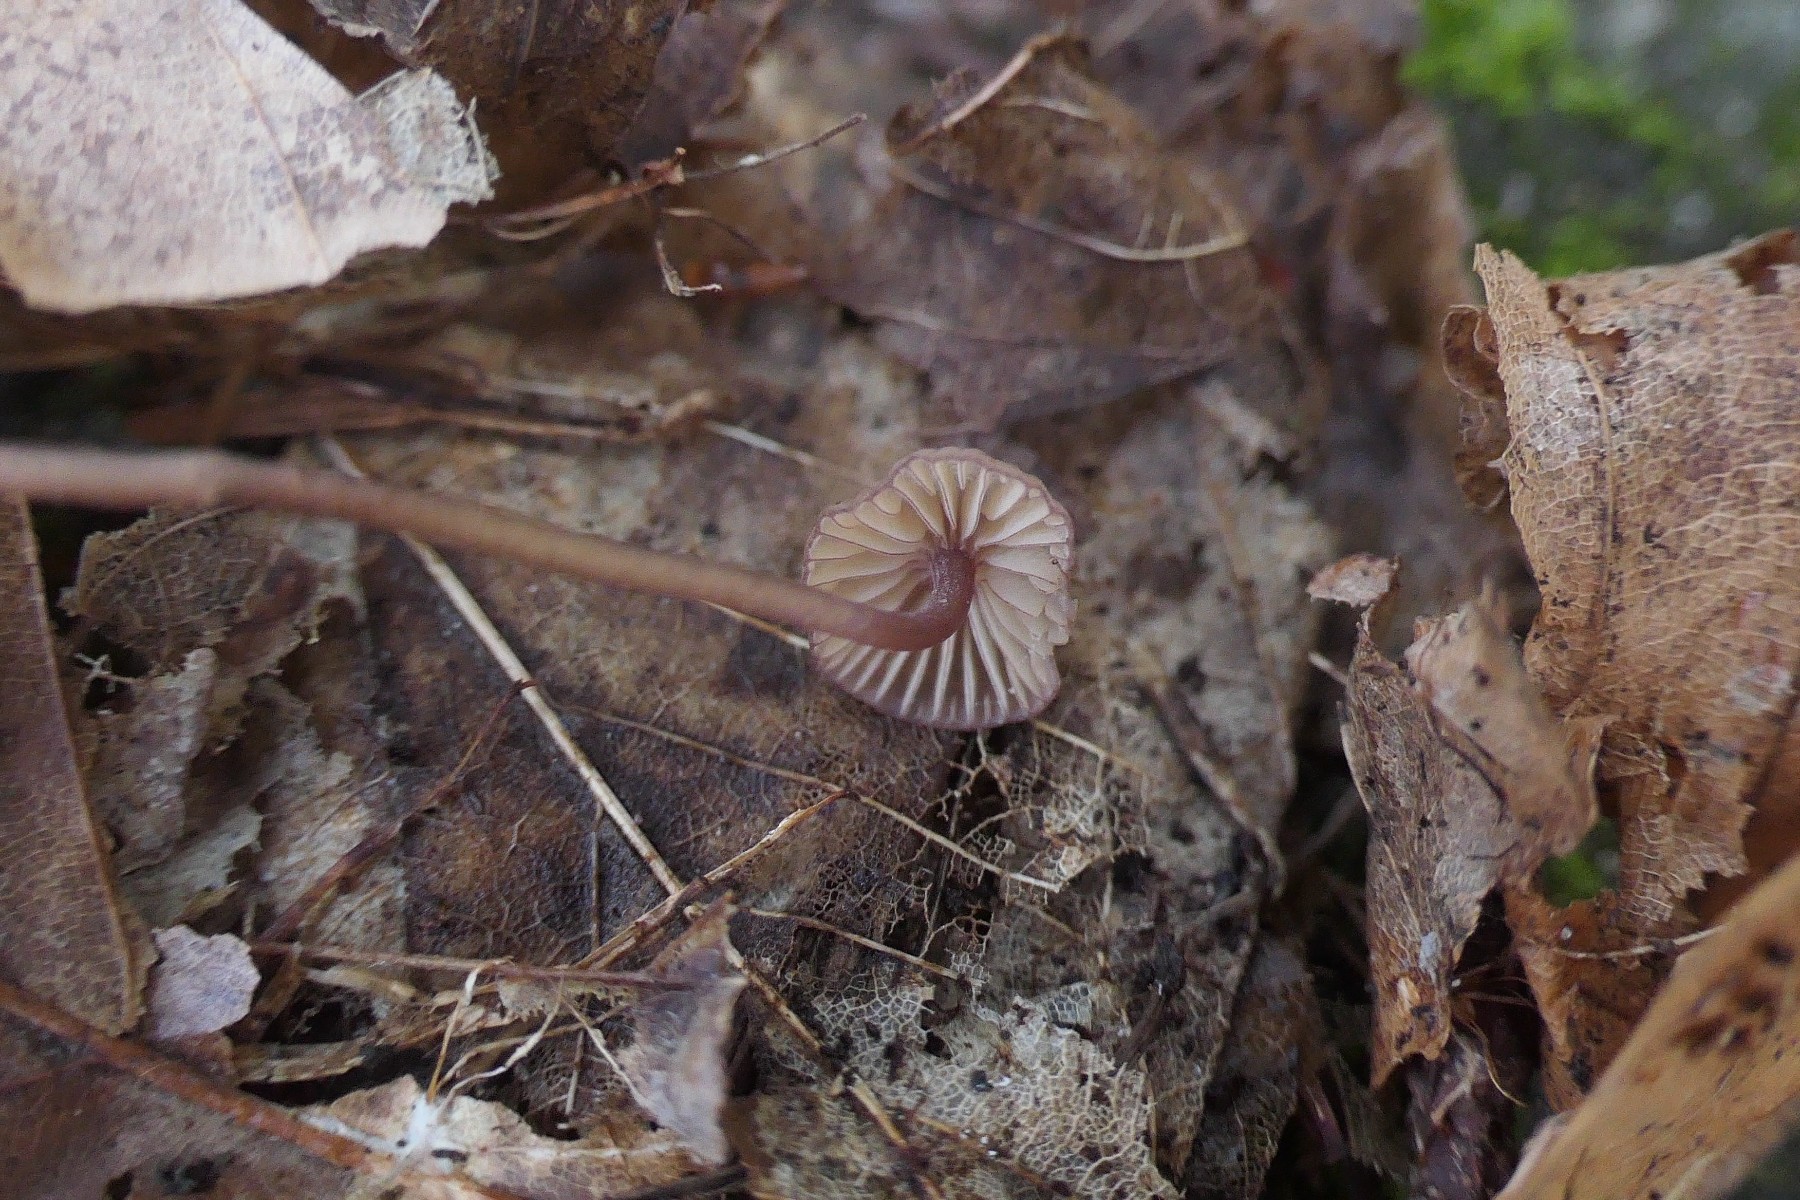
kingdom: Fungi
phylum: Basidiomycota
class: Agaricomycetes
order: Agaricales
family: Mycenaceae
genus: Mycena
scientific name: Mycena sanguinolenta
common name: rødmælket huesvamp
